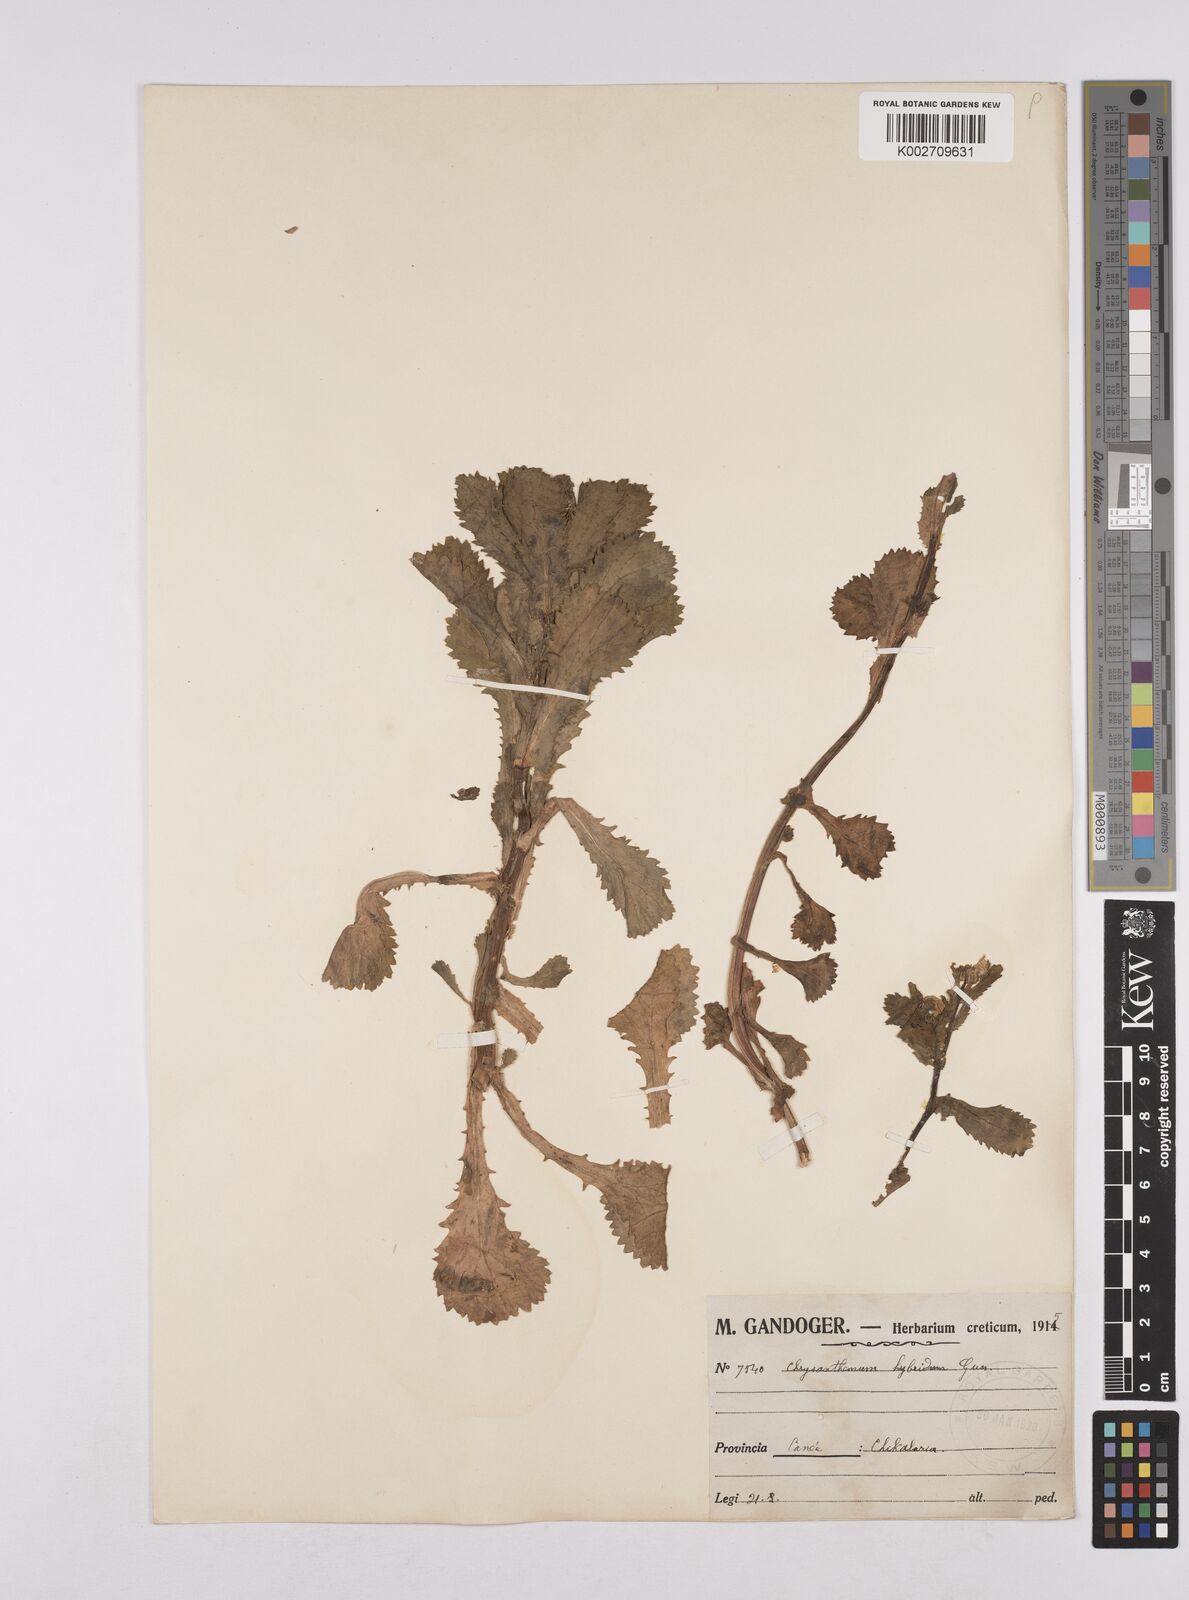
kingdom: Plantae
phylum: Tracheophyta
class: Magnoliopsida
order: Asterales
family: Asteraceae
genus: Coleostephus
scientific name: Coleostephus paludosus
